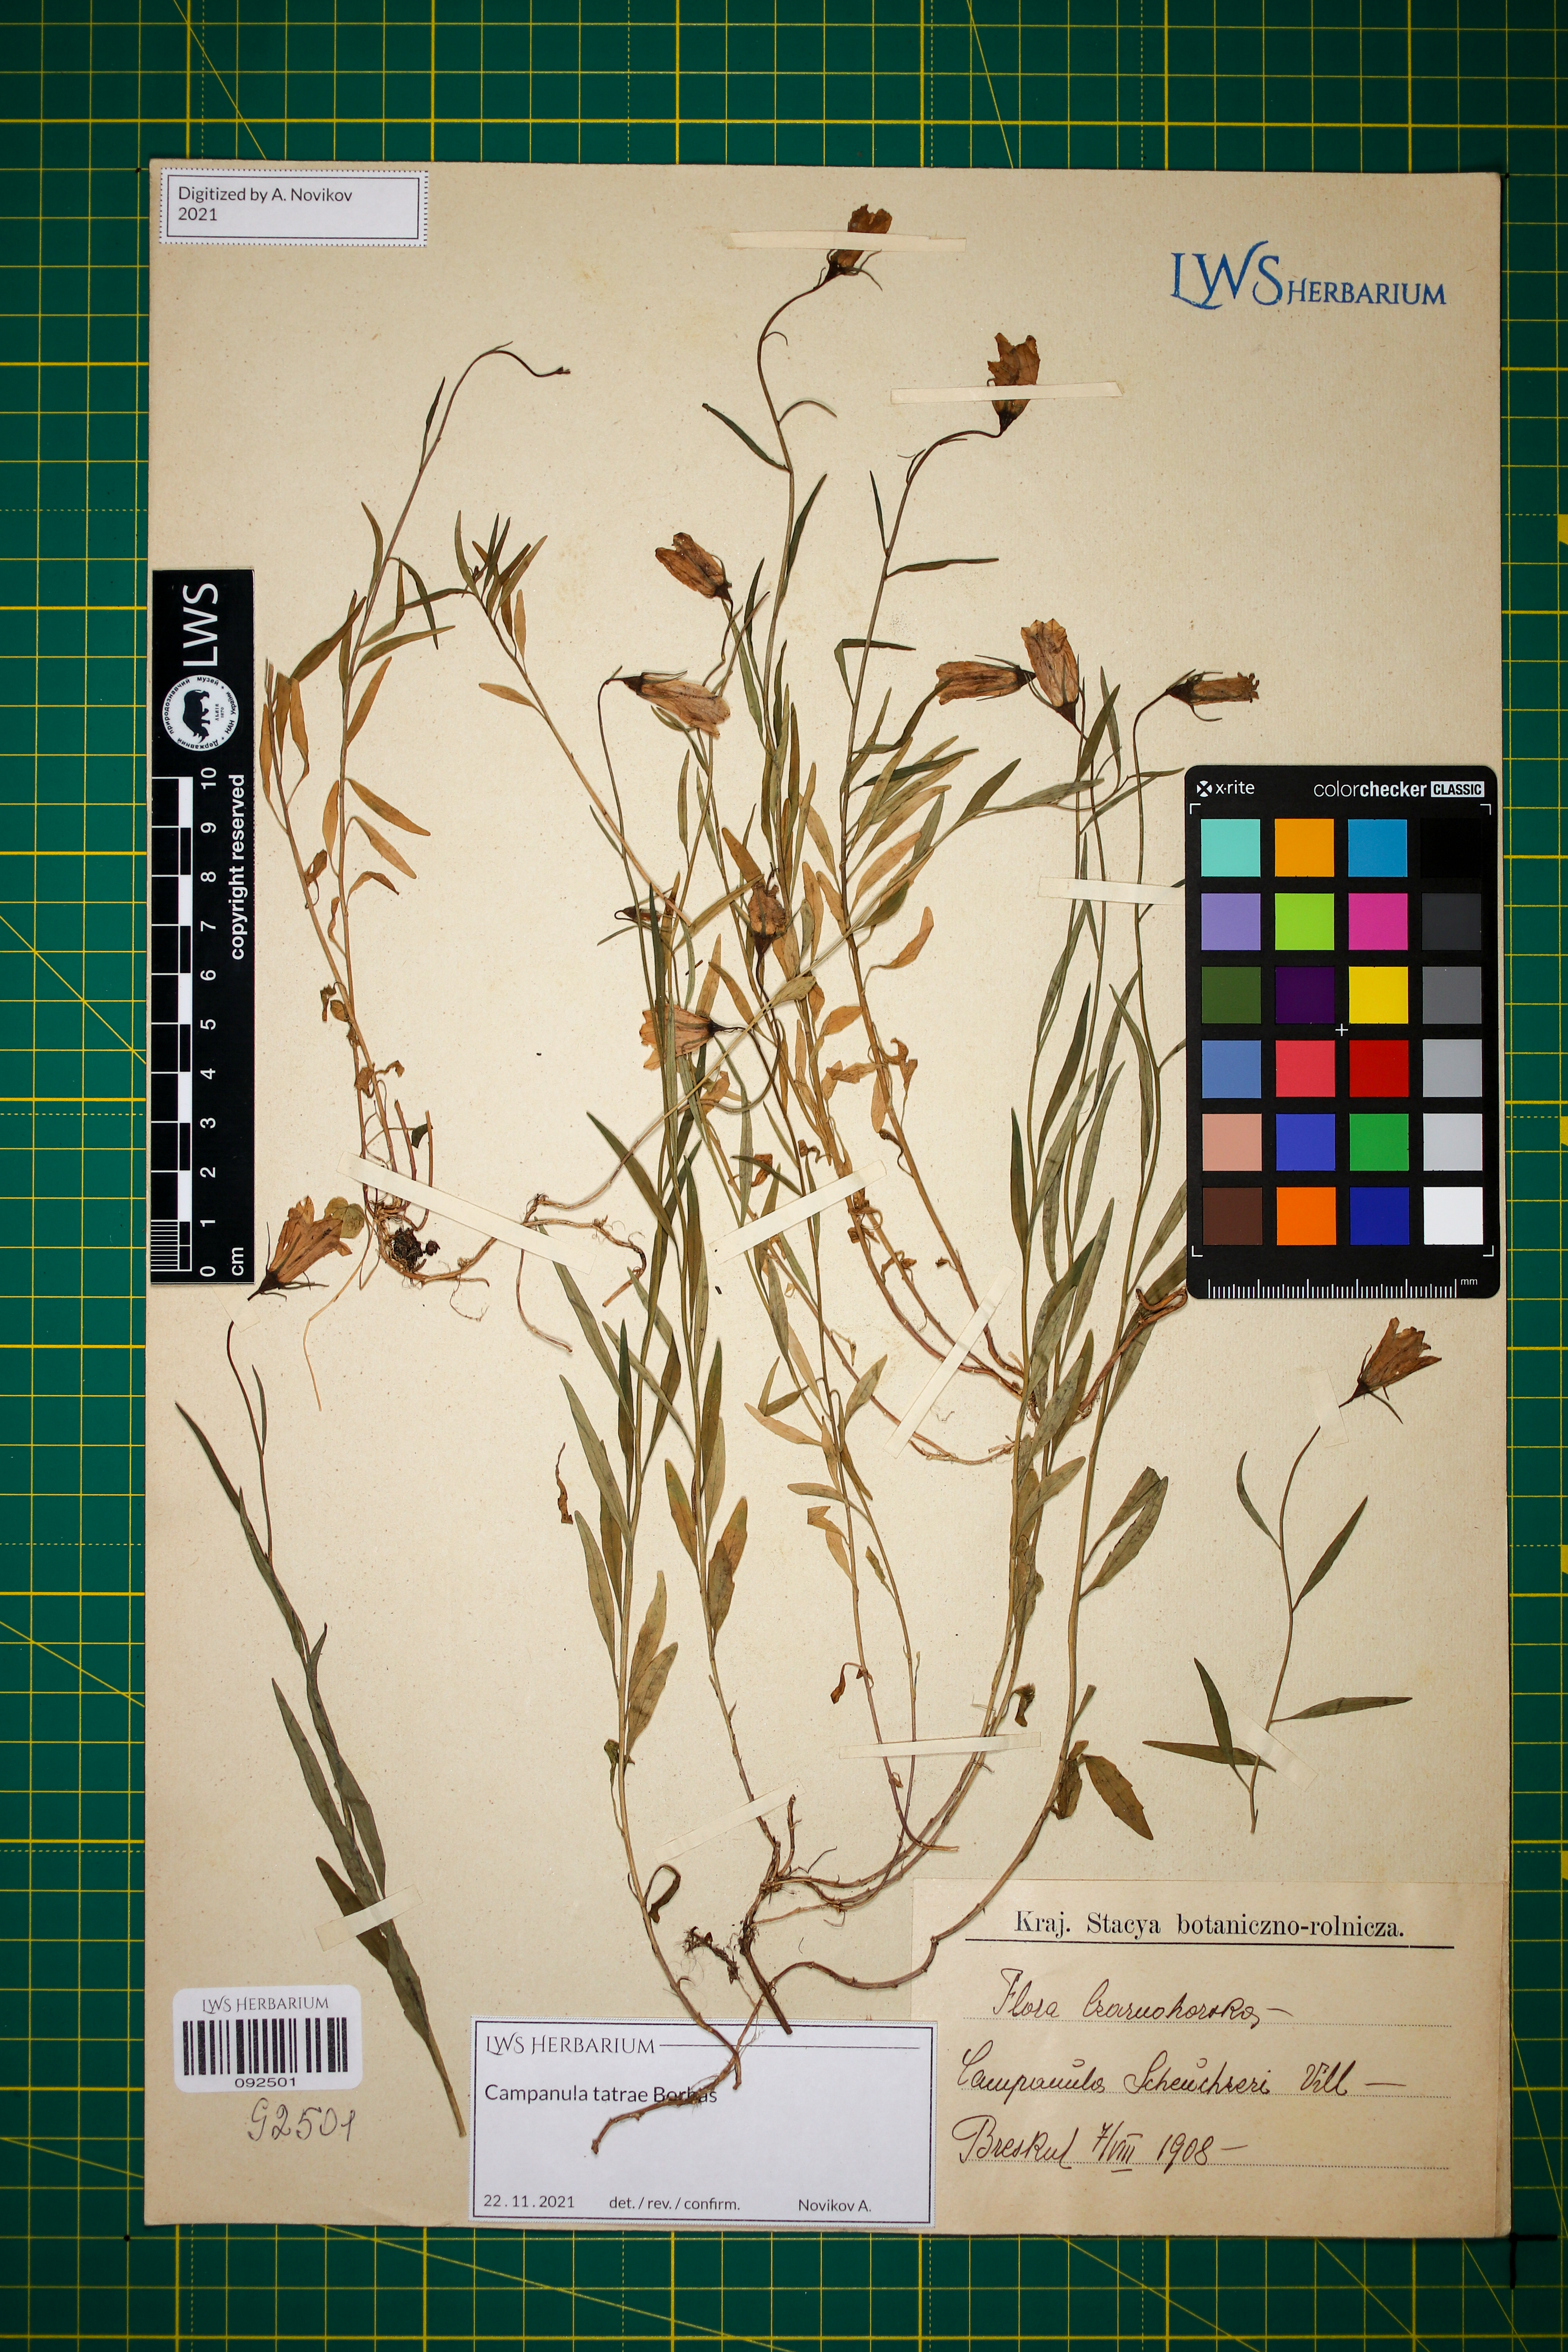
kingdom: Plantae
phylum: Tracheophyta
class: Magnoliopsida
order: Asterales
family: Campanulaceae
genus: Campanula
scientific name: Campanula tatrae
